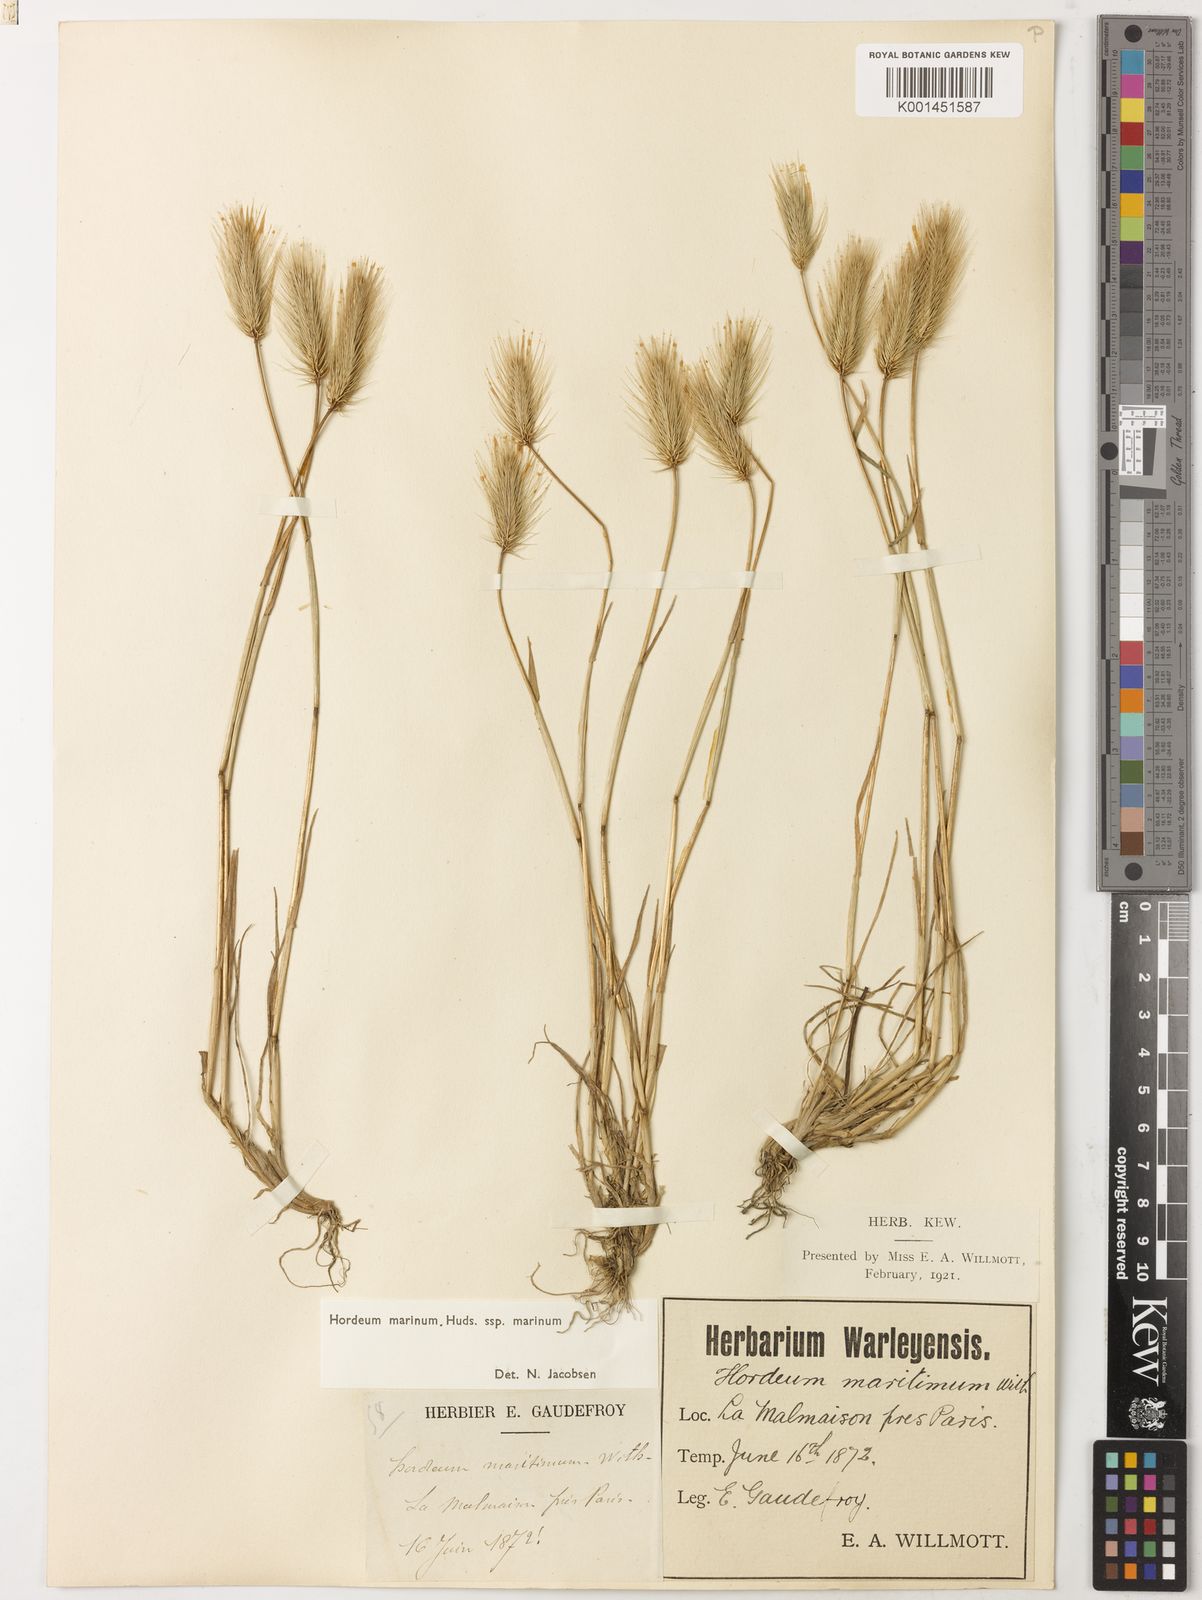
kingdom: Plantae
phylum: Tracheophyta
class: Liliopsida
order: Poales
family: Poaceae
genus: Hordeum
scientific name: Hordeum marinum
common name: Sea barley
